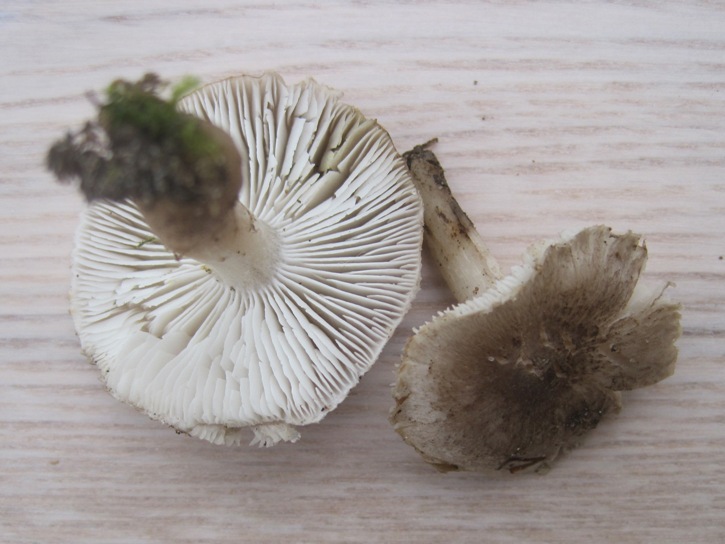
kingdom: Fungi
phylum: Basidiomycota
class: Agaricomycetes
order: Agaricales
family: Tricholomataceae
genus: Tricholoma
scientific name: Tricholoma scalpturatum
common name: gulplettet ridderhat
